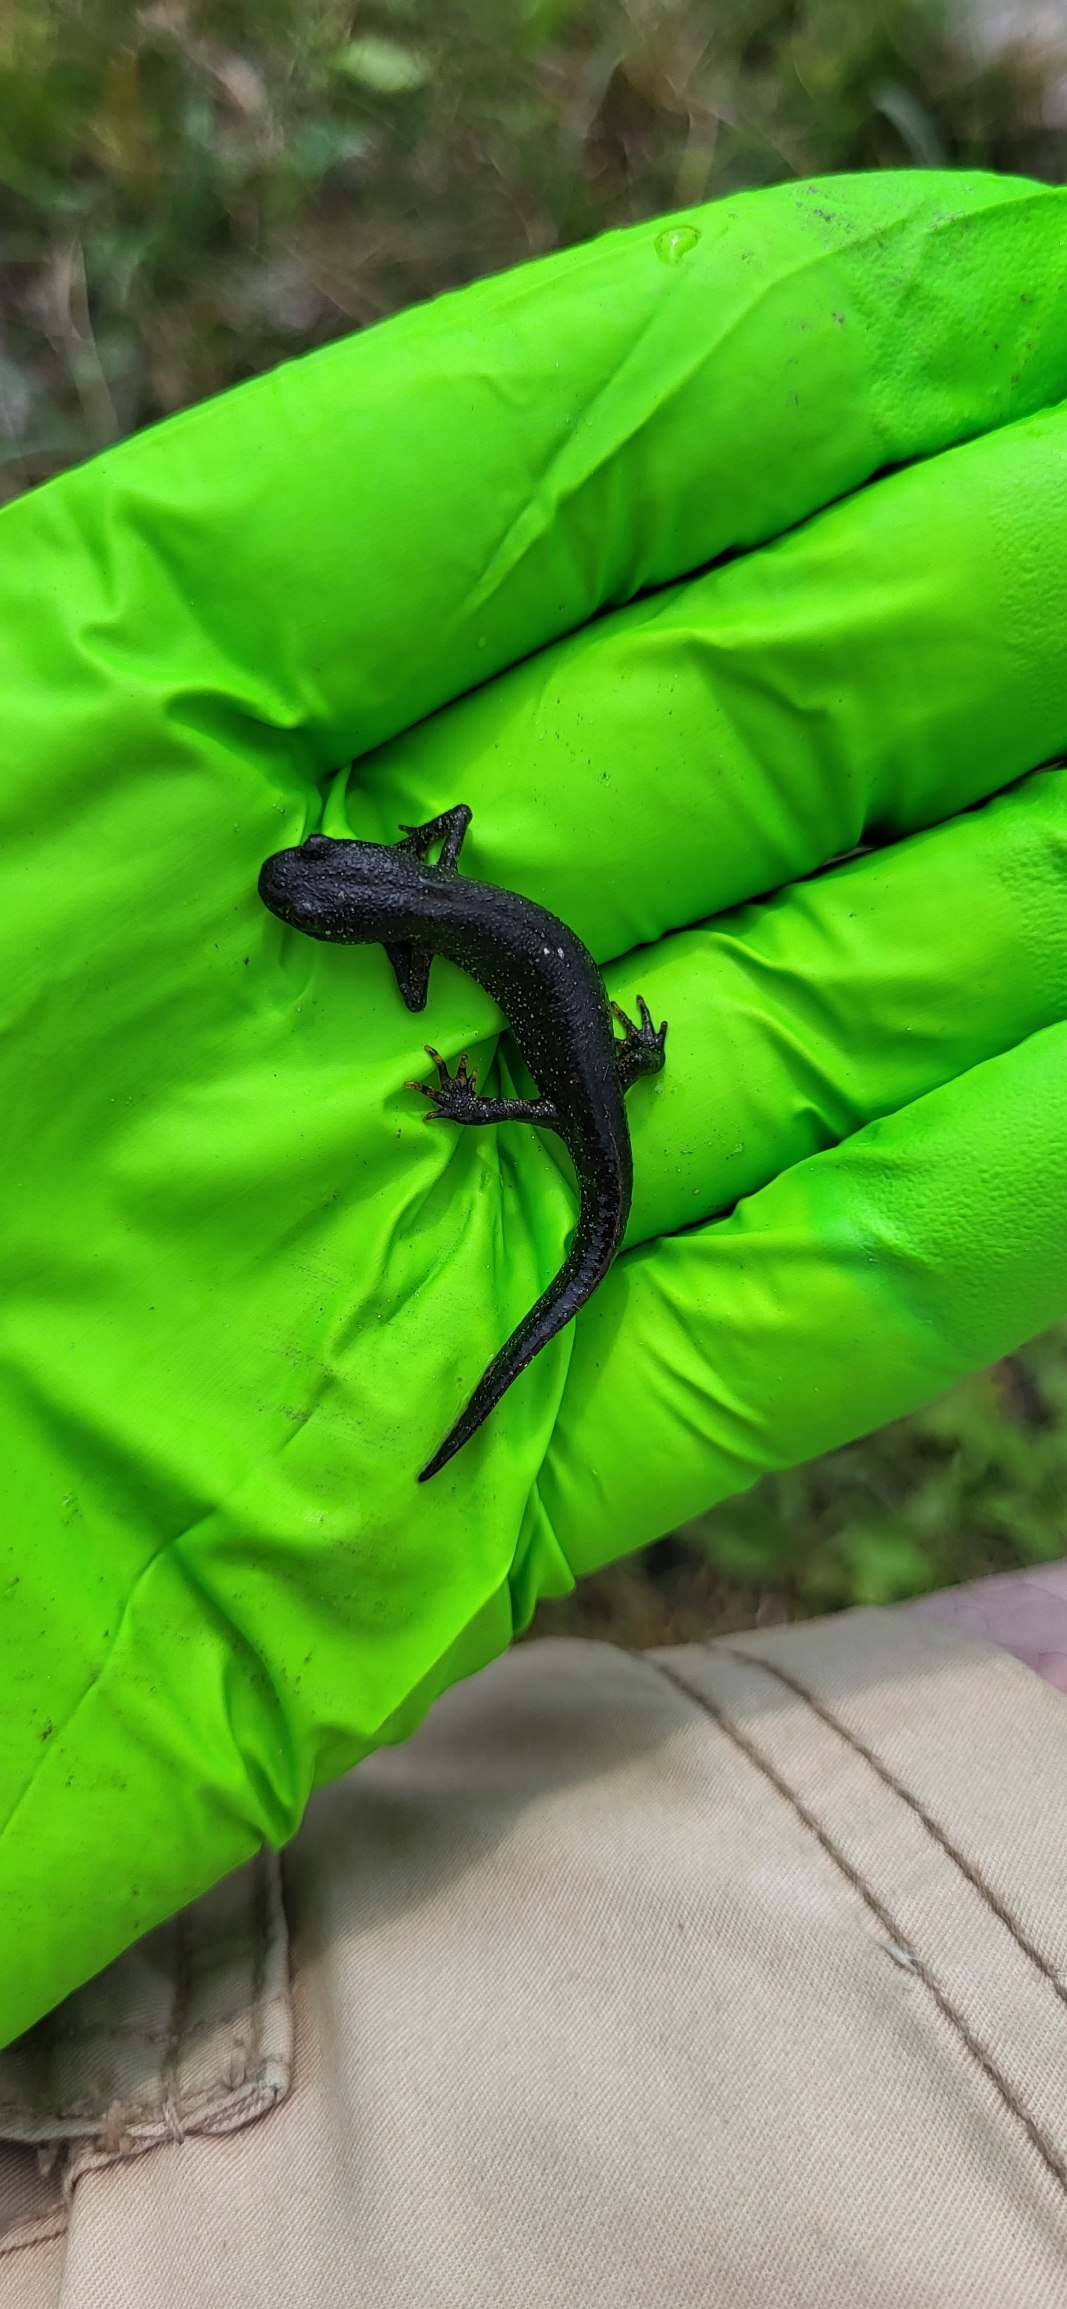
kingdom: Animalia
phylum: Chordata
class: Amphibia
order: Caudata
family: Salamandridae
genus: Triturus
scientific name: Triturus cristatus
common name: Stor vandsalamander
